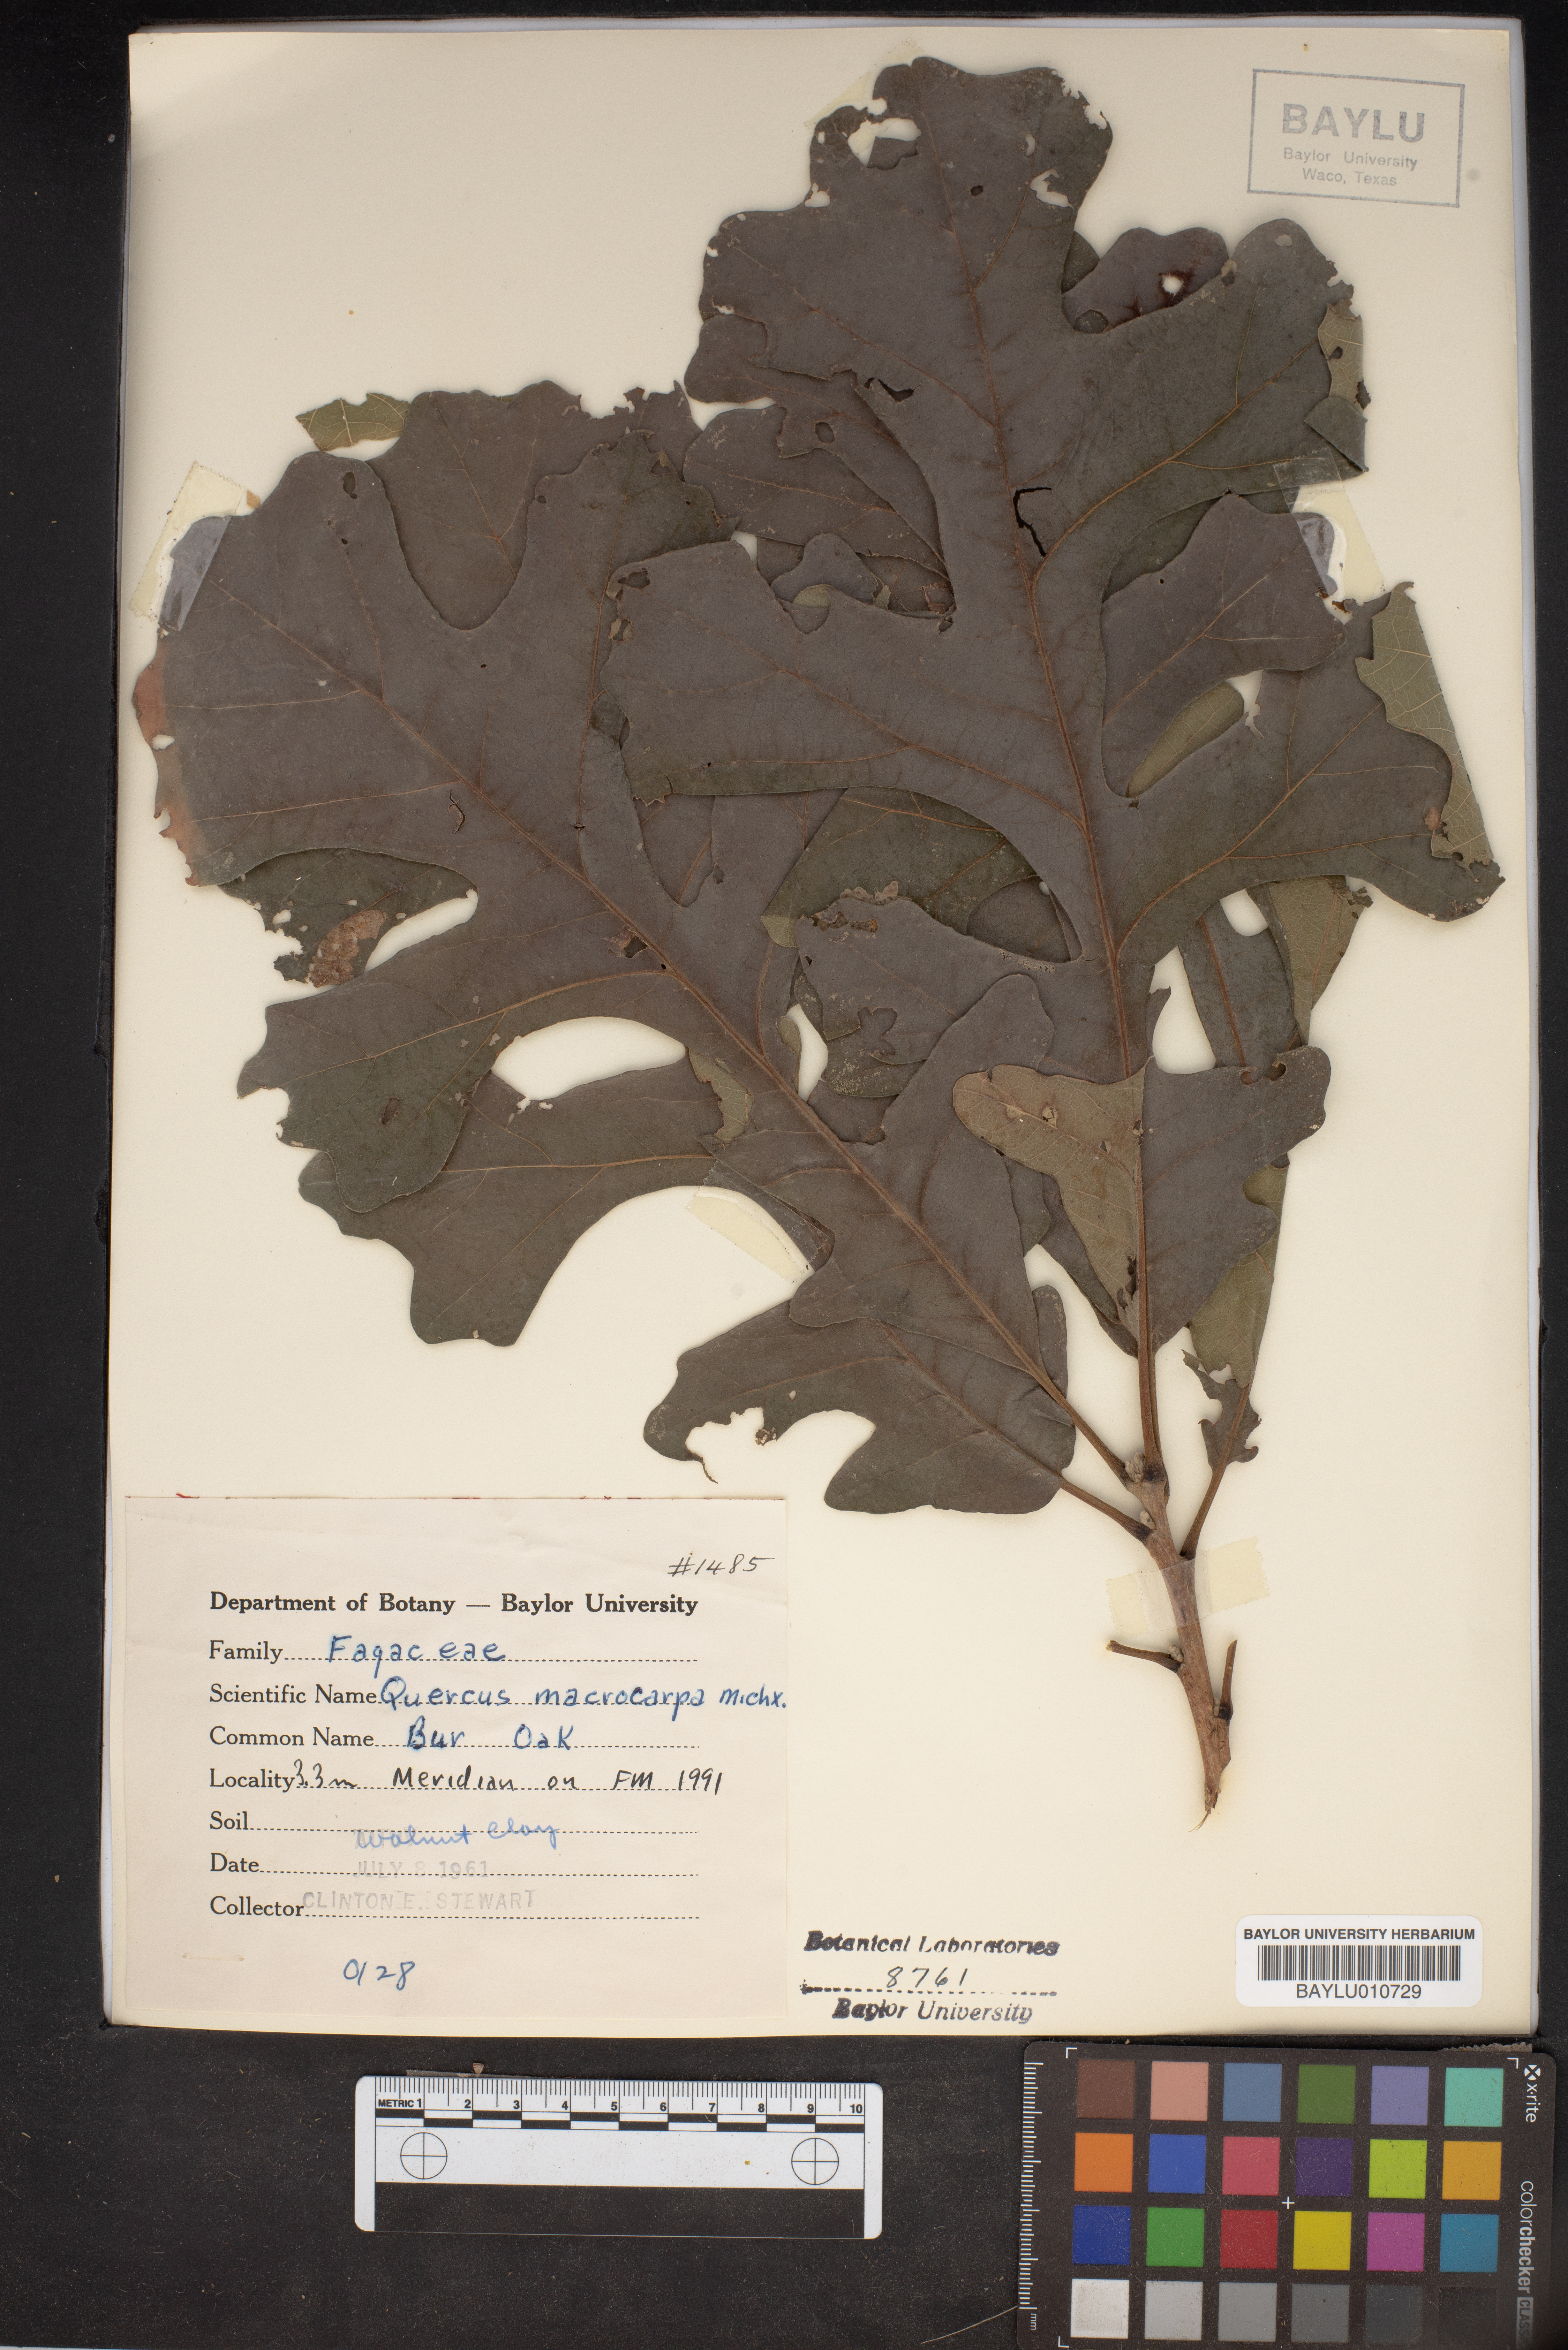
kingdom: Plantae
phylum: Tracheophyta
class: Magnoliopsida
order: Fagales
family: Fagaceae
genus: Quercus
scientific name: Quercus macrocarpa
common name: Bur oak
